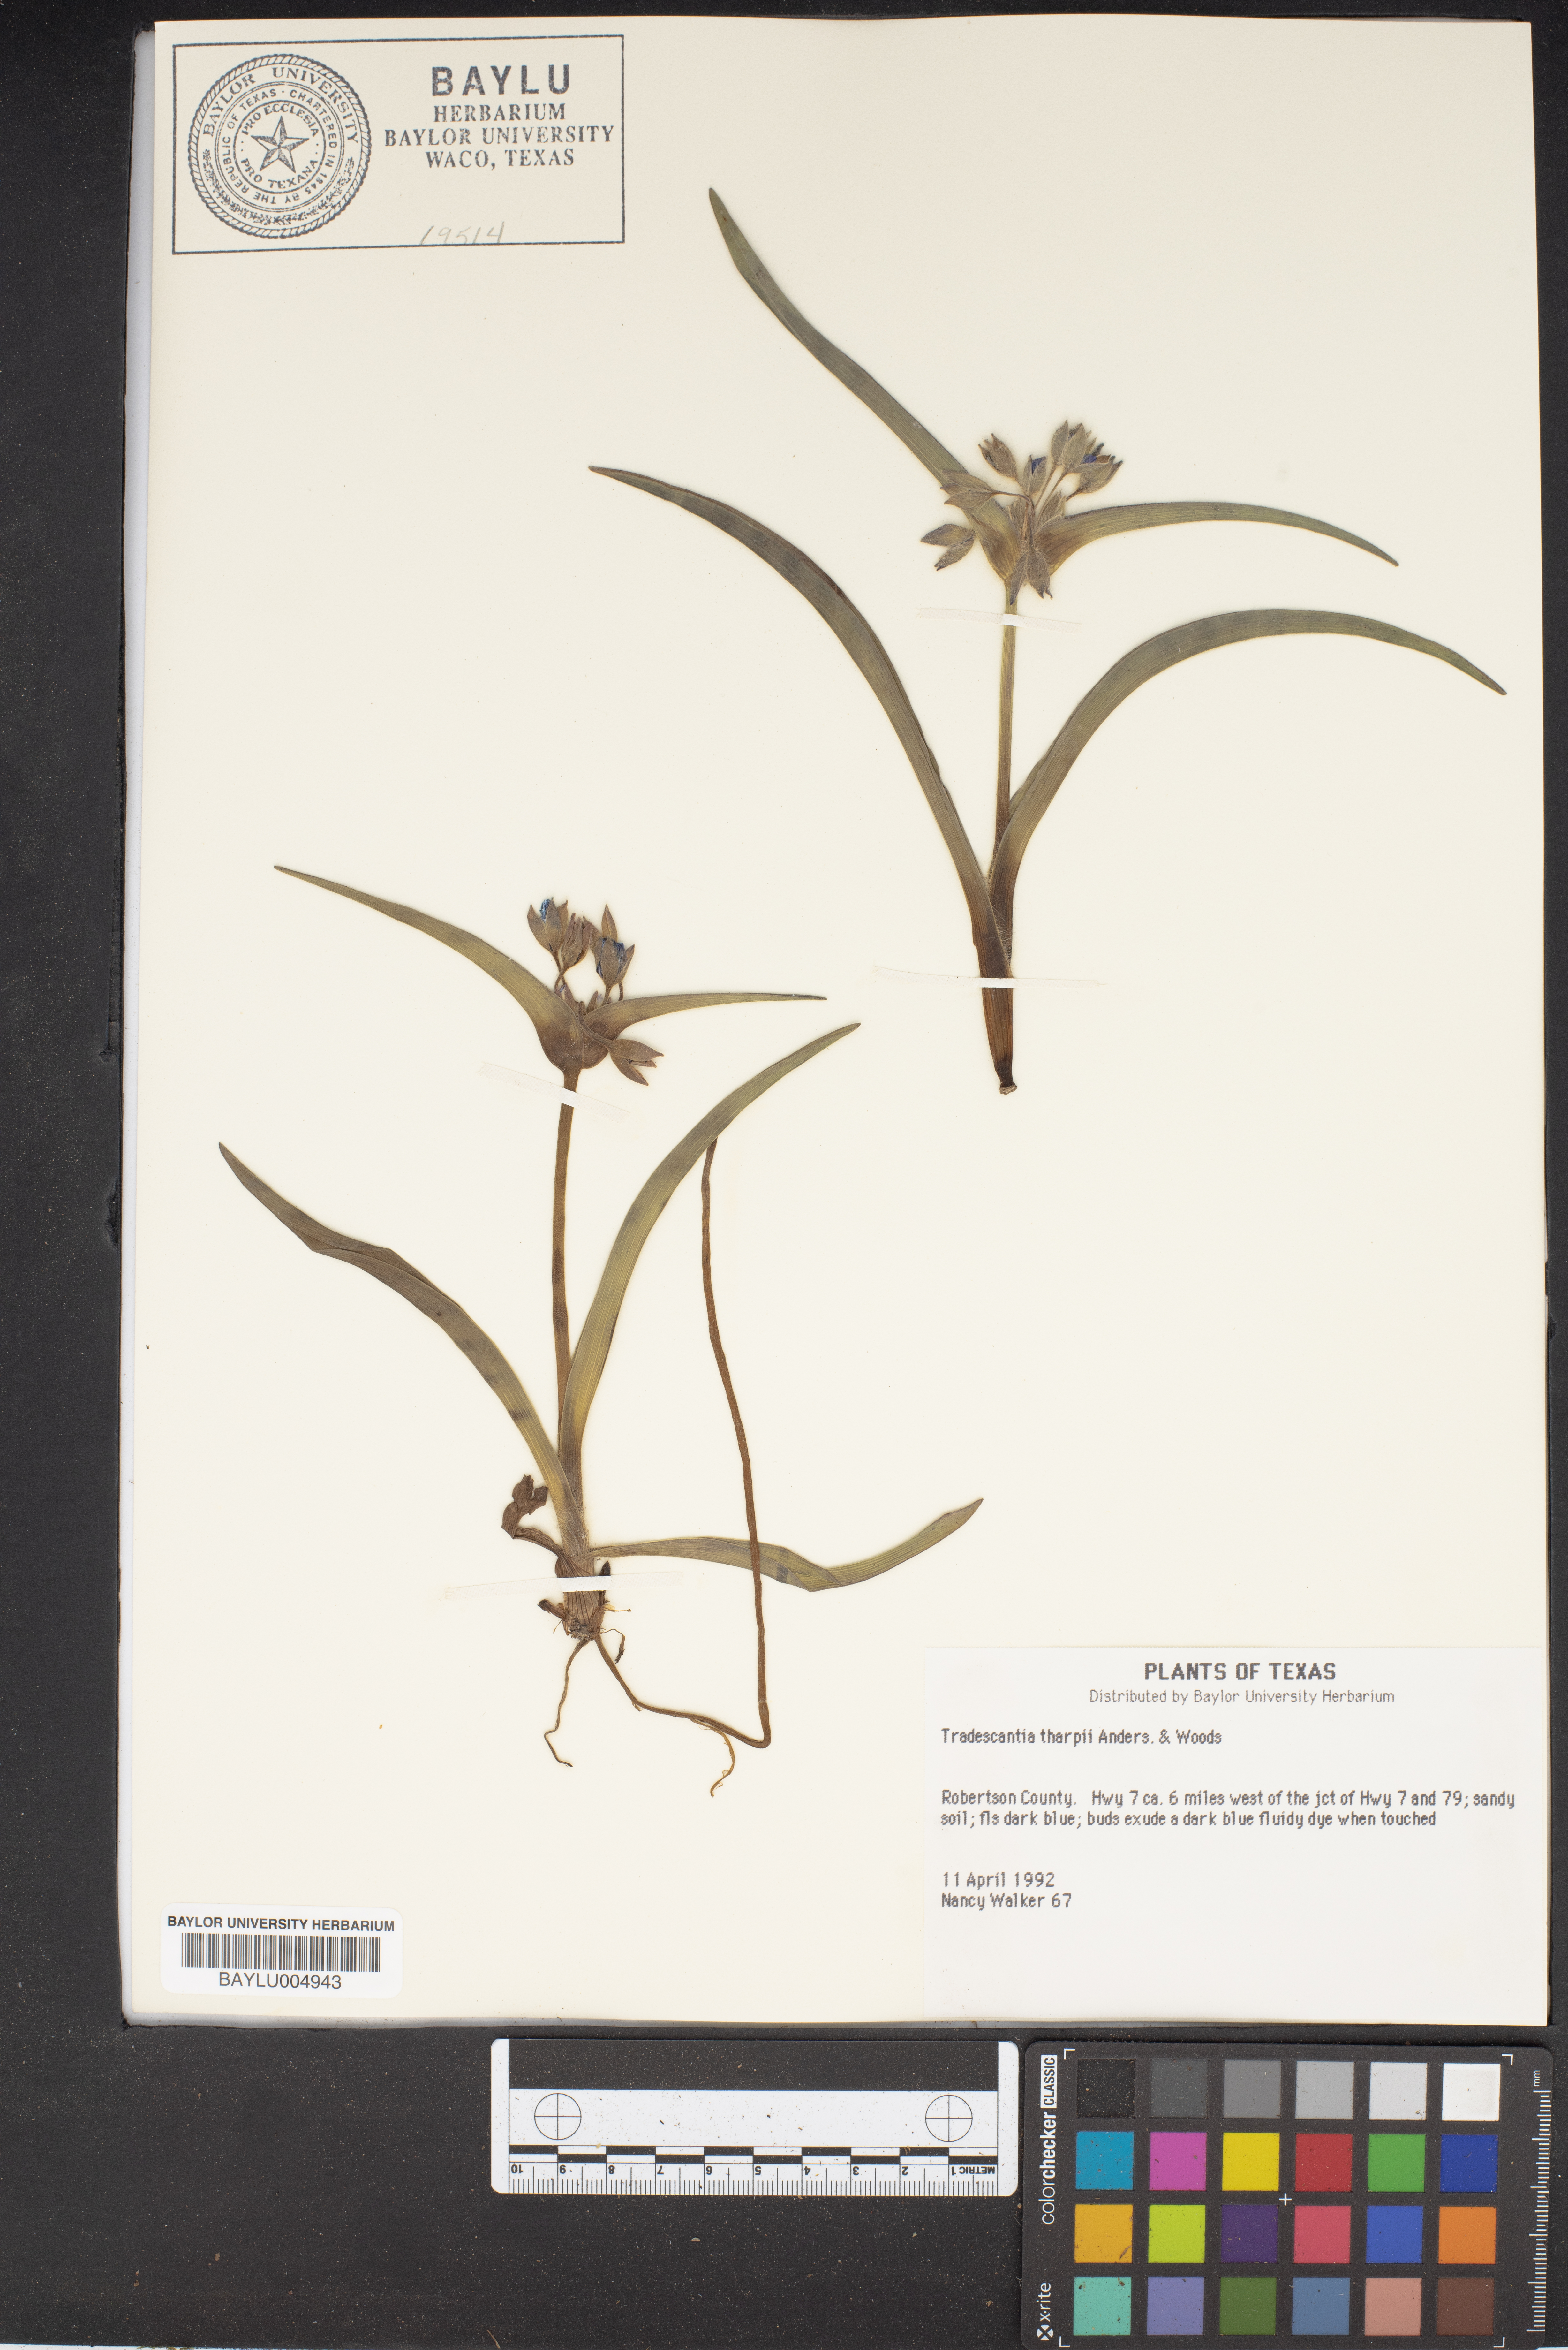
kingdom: Plantae
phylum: Tracheophyta
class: Liliopsida
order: Commelinales
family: Commelinaceae
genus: Tradescantia
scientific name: Tradescantia tharpii
